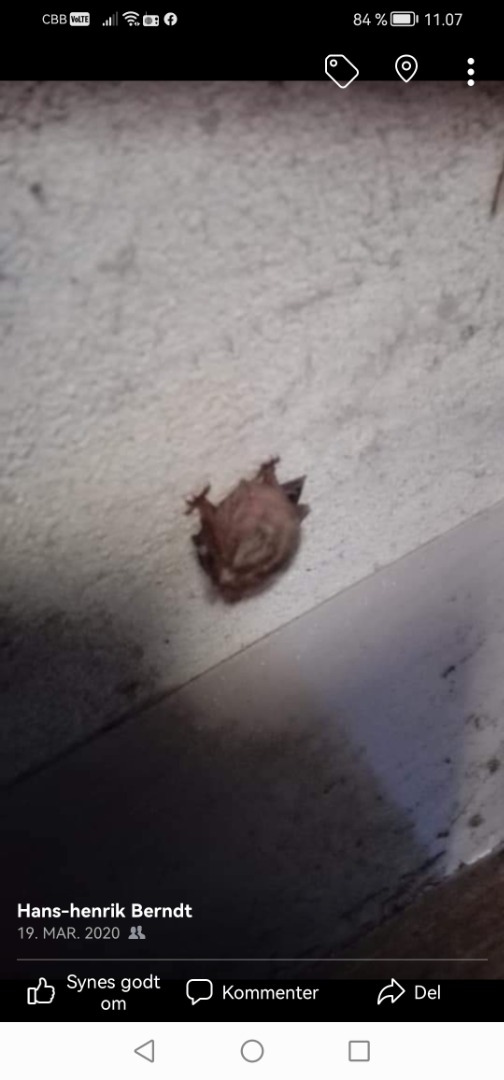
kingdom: Animalia
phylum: Chordata
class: Mammalia
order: Chiroptera
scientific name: Chiroptera
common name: Flagermus
